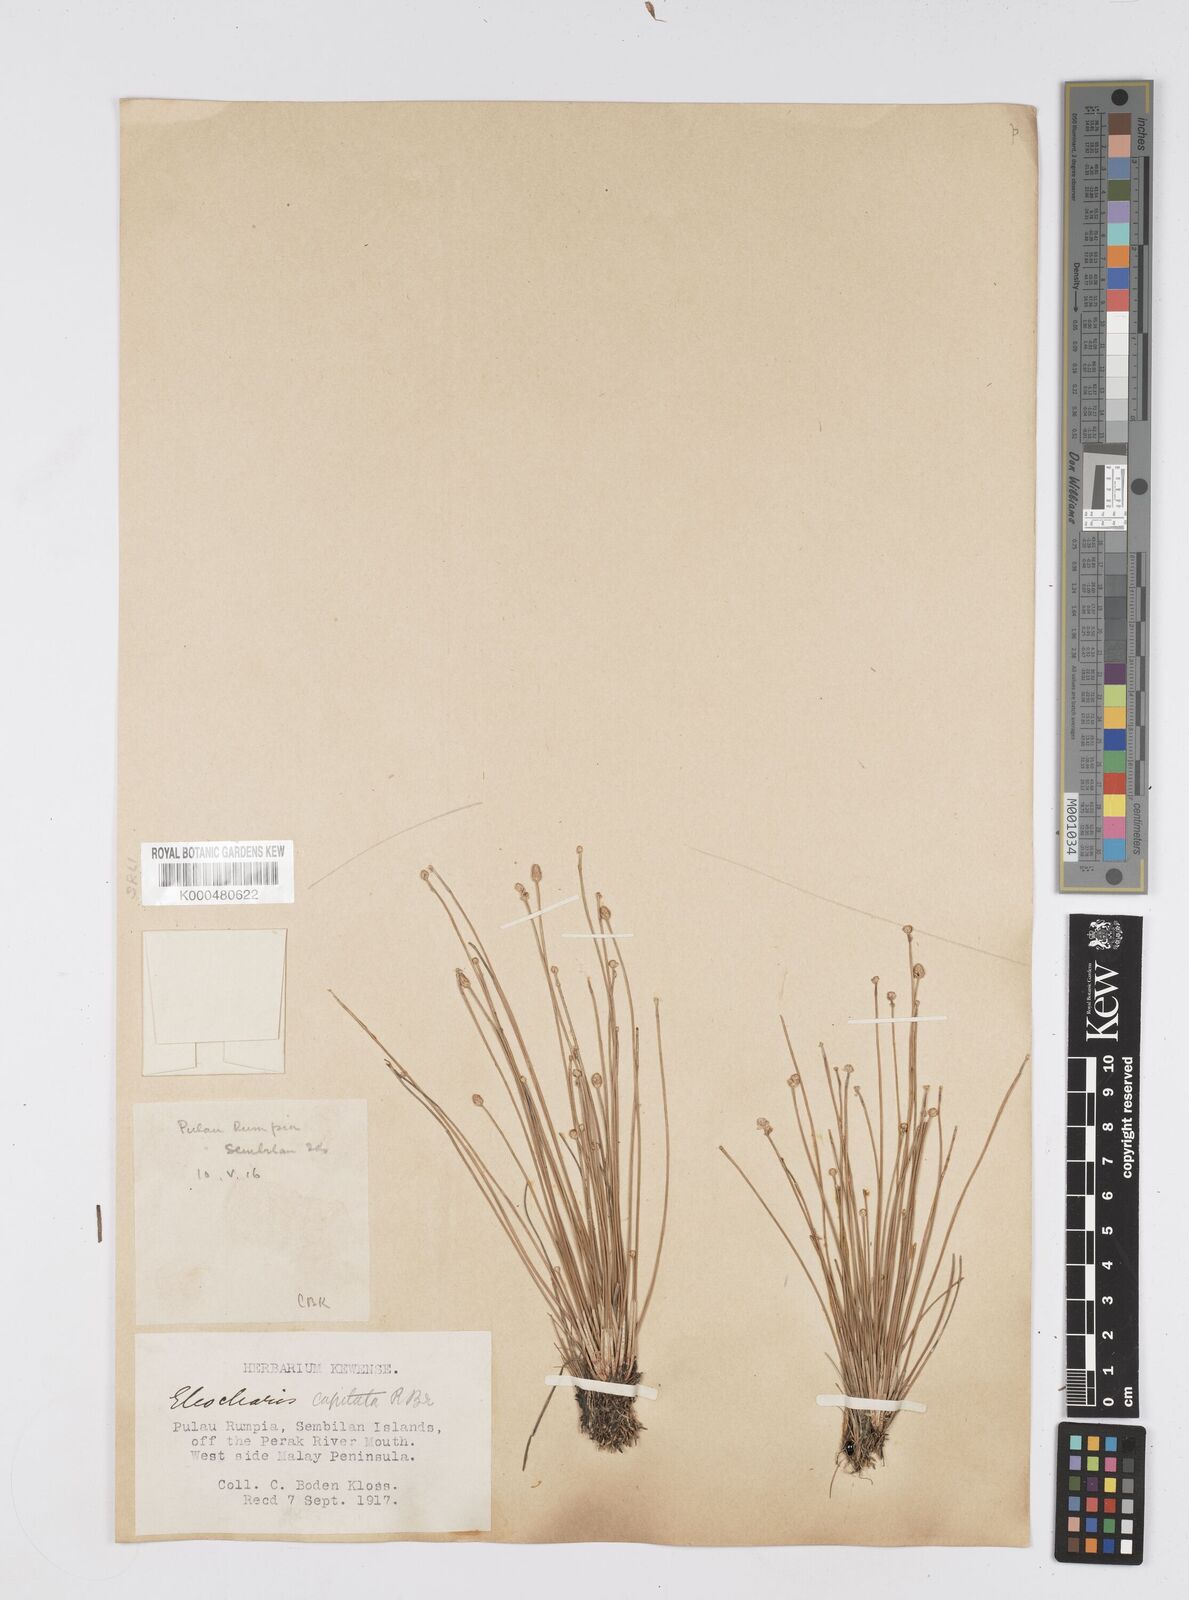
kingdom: Plantae
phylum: Tracheophyta
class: Liliopsida
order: Poales
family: Cyperaceae
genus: Eleocharis
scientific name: Eleocharis geniculata
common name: Canada spikesedge
